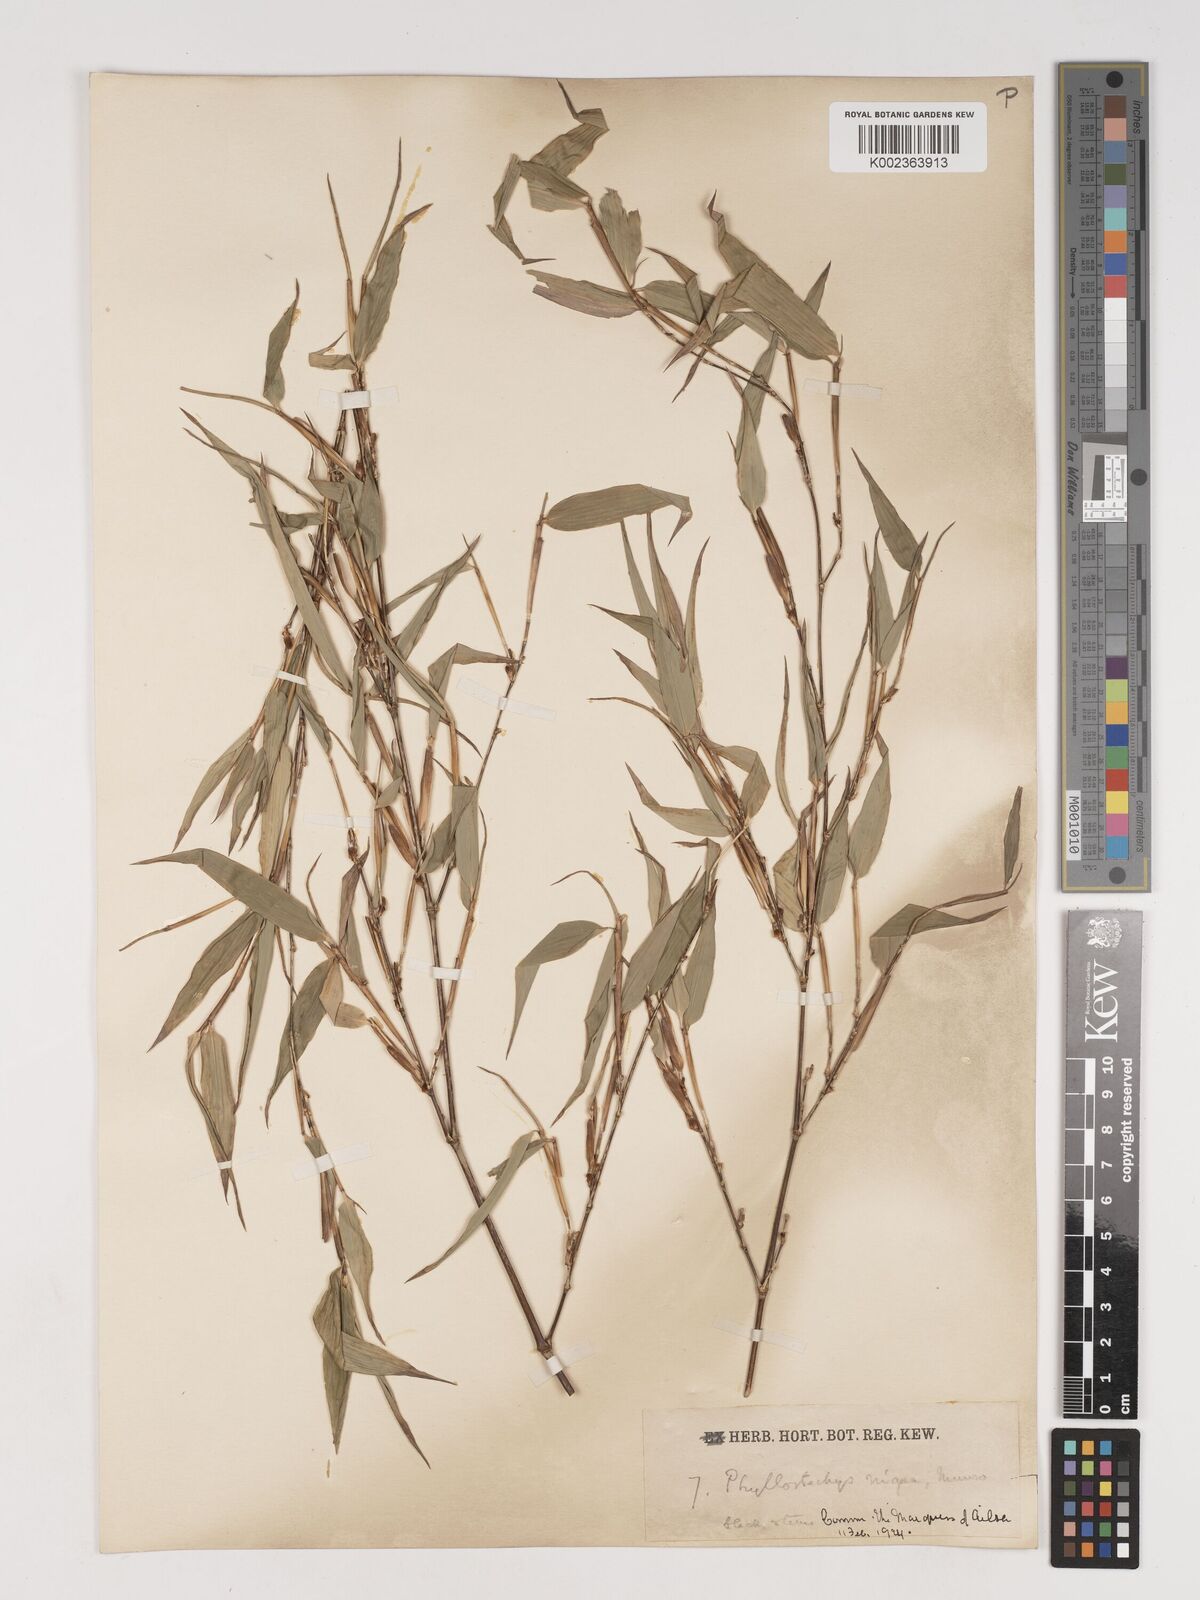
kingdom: Plantae
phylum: Tracheophyta
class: Liliopsida
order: Poales
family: Poaceae
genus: Phyllostachys
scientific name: Phyllostachys nigra
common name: Black bamboo
